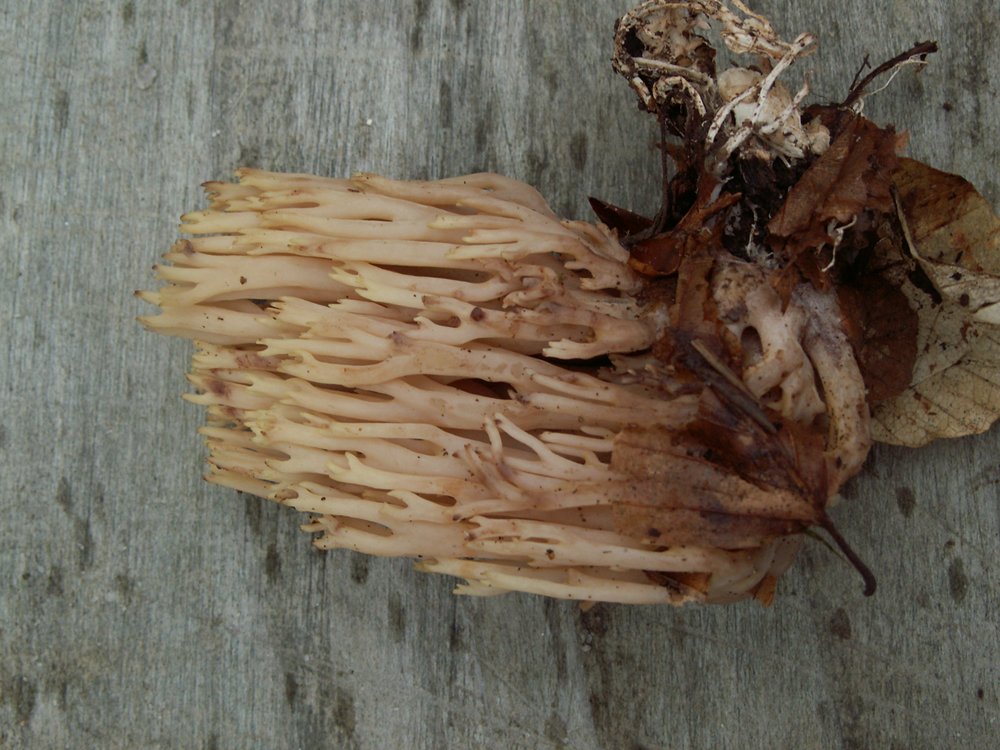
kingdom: Fungi
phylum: Basidiomycota
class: Agaricomycetes
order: Gomphales
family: Gomphaceae
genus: Ramaria
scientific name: Ramaria stricta
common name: rank koralsvamp
